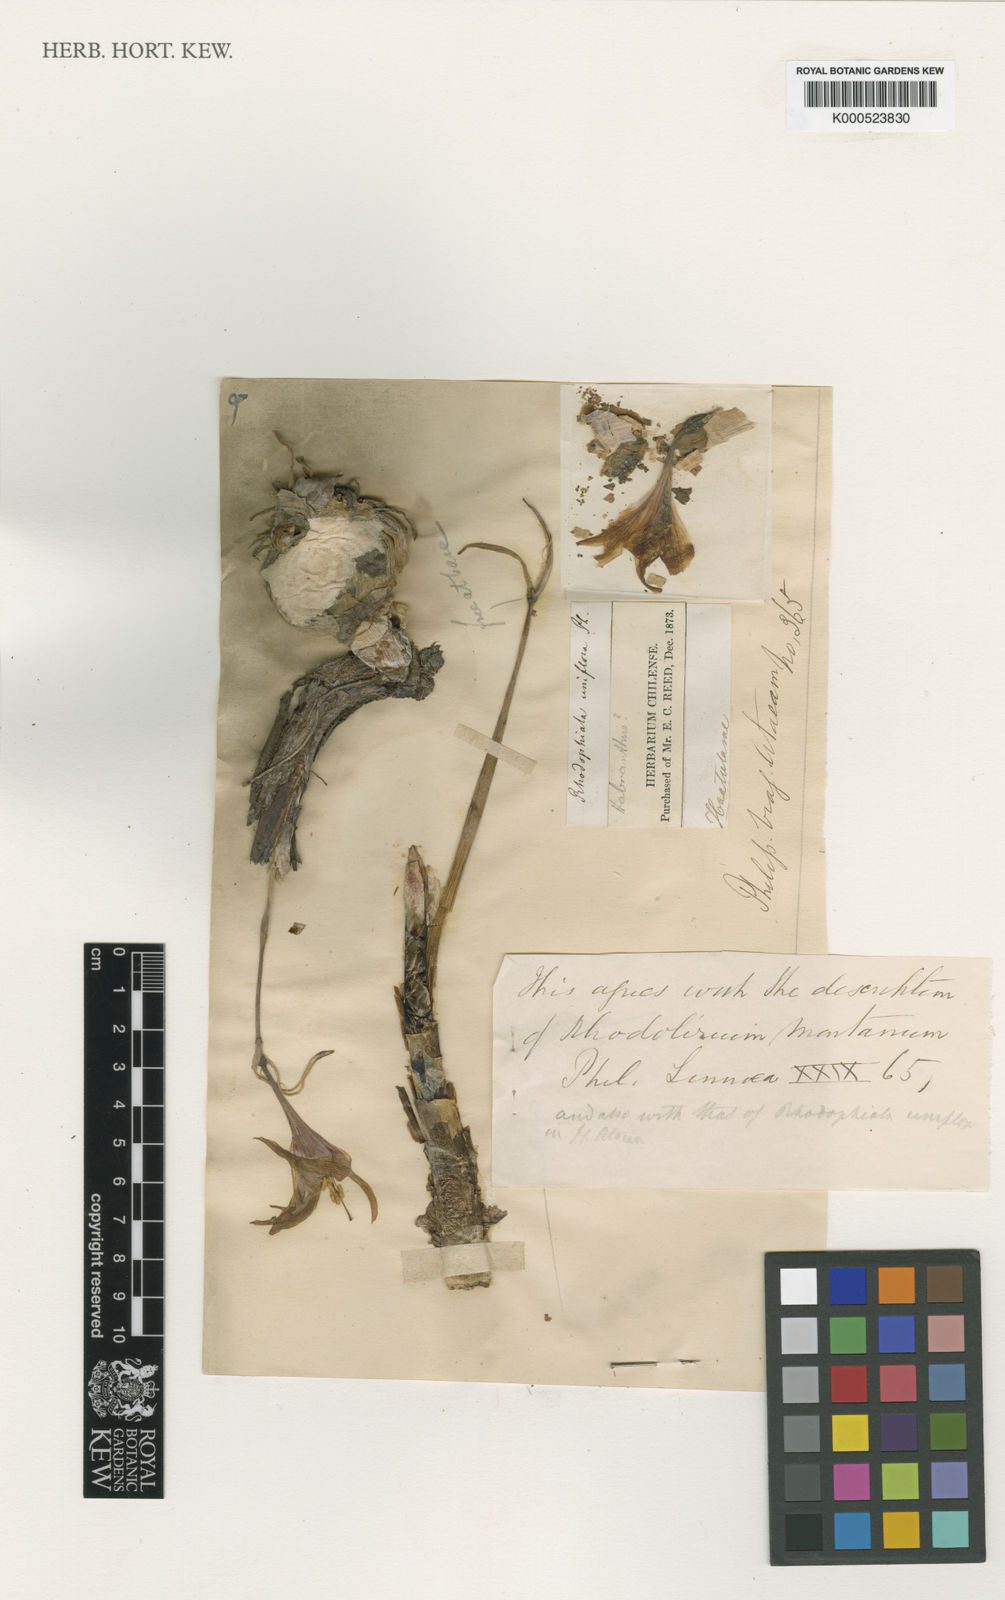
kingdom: Plantae
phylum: Tracheophyta
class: Liliopsida
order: Asparagales
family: Amaryllidaceae
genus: Paposoa
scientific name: Paposoa laeta
